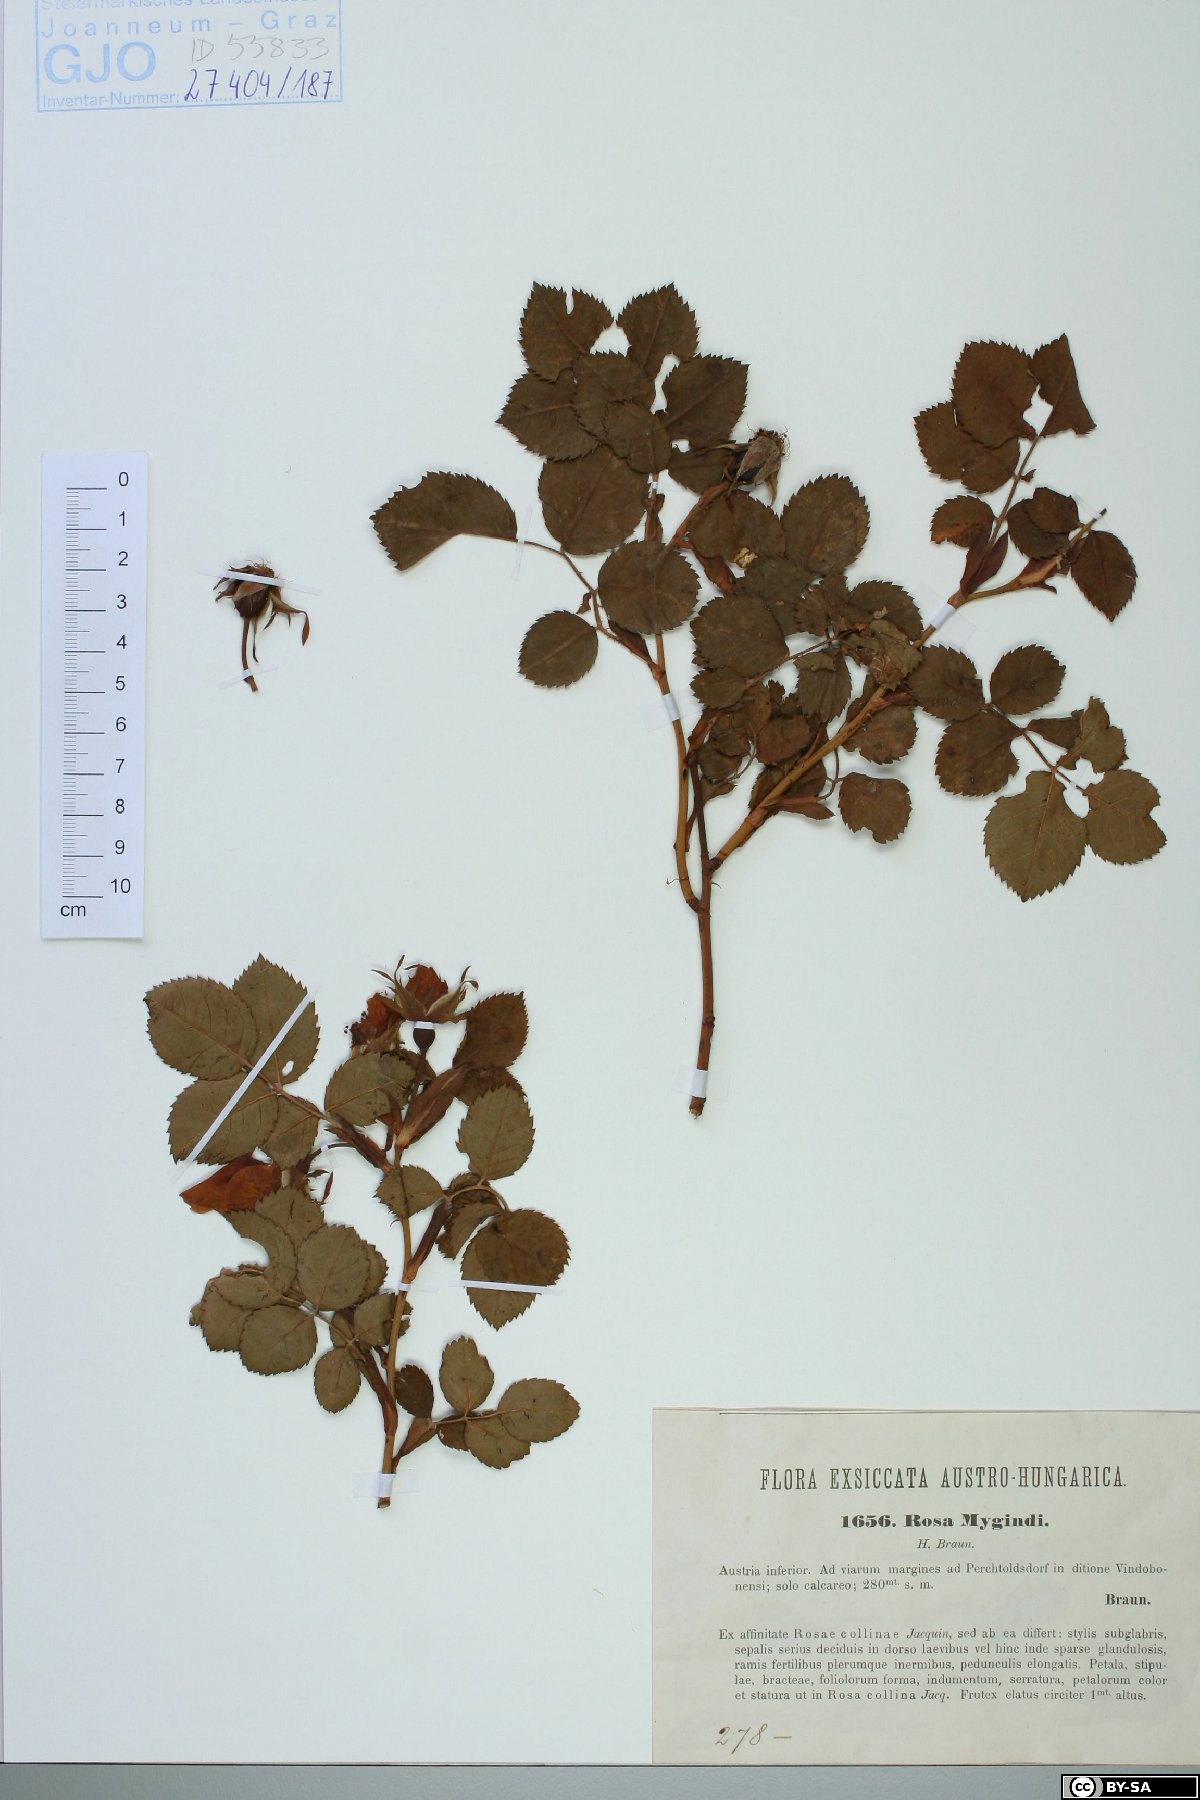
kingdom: Plantae
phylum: Tracheophyta
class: Magnoliopsida
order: Rosales
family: Rosaceae
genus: Rosa
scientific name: Rosa canina
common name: Dog rose
